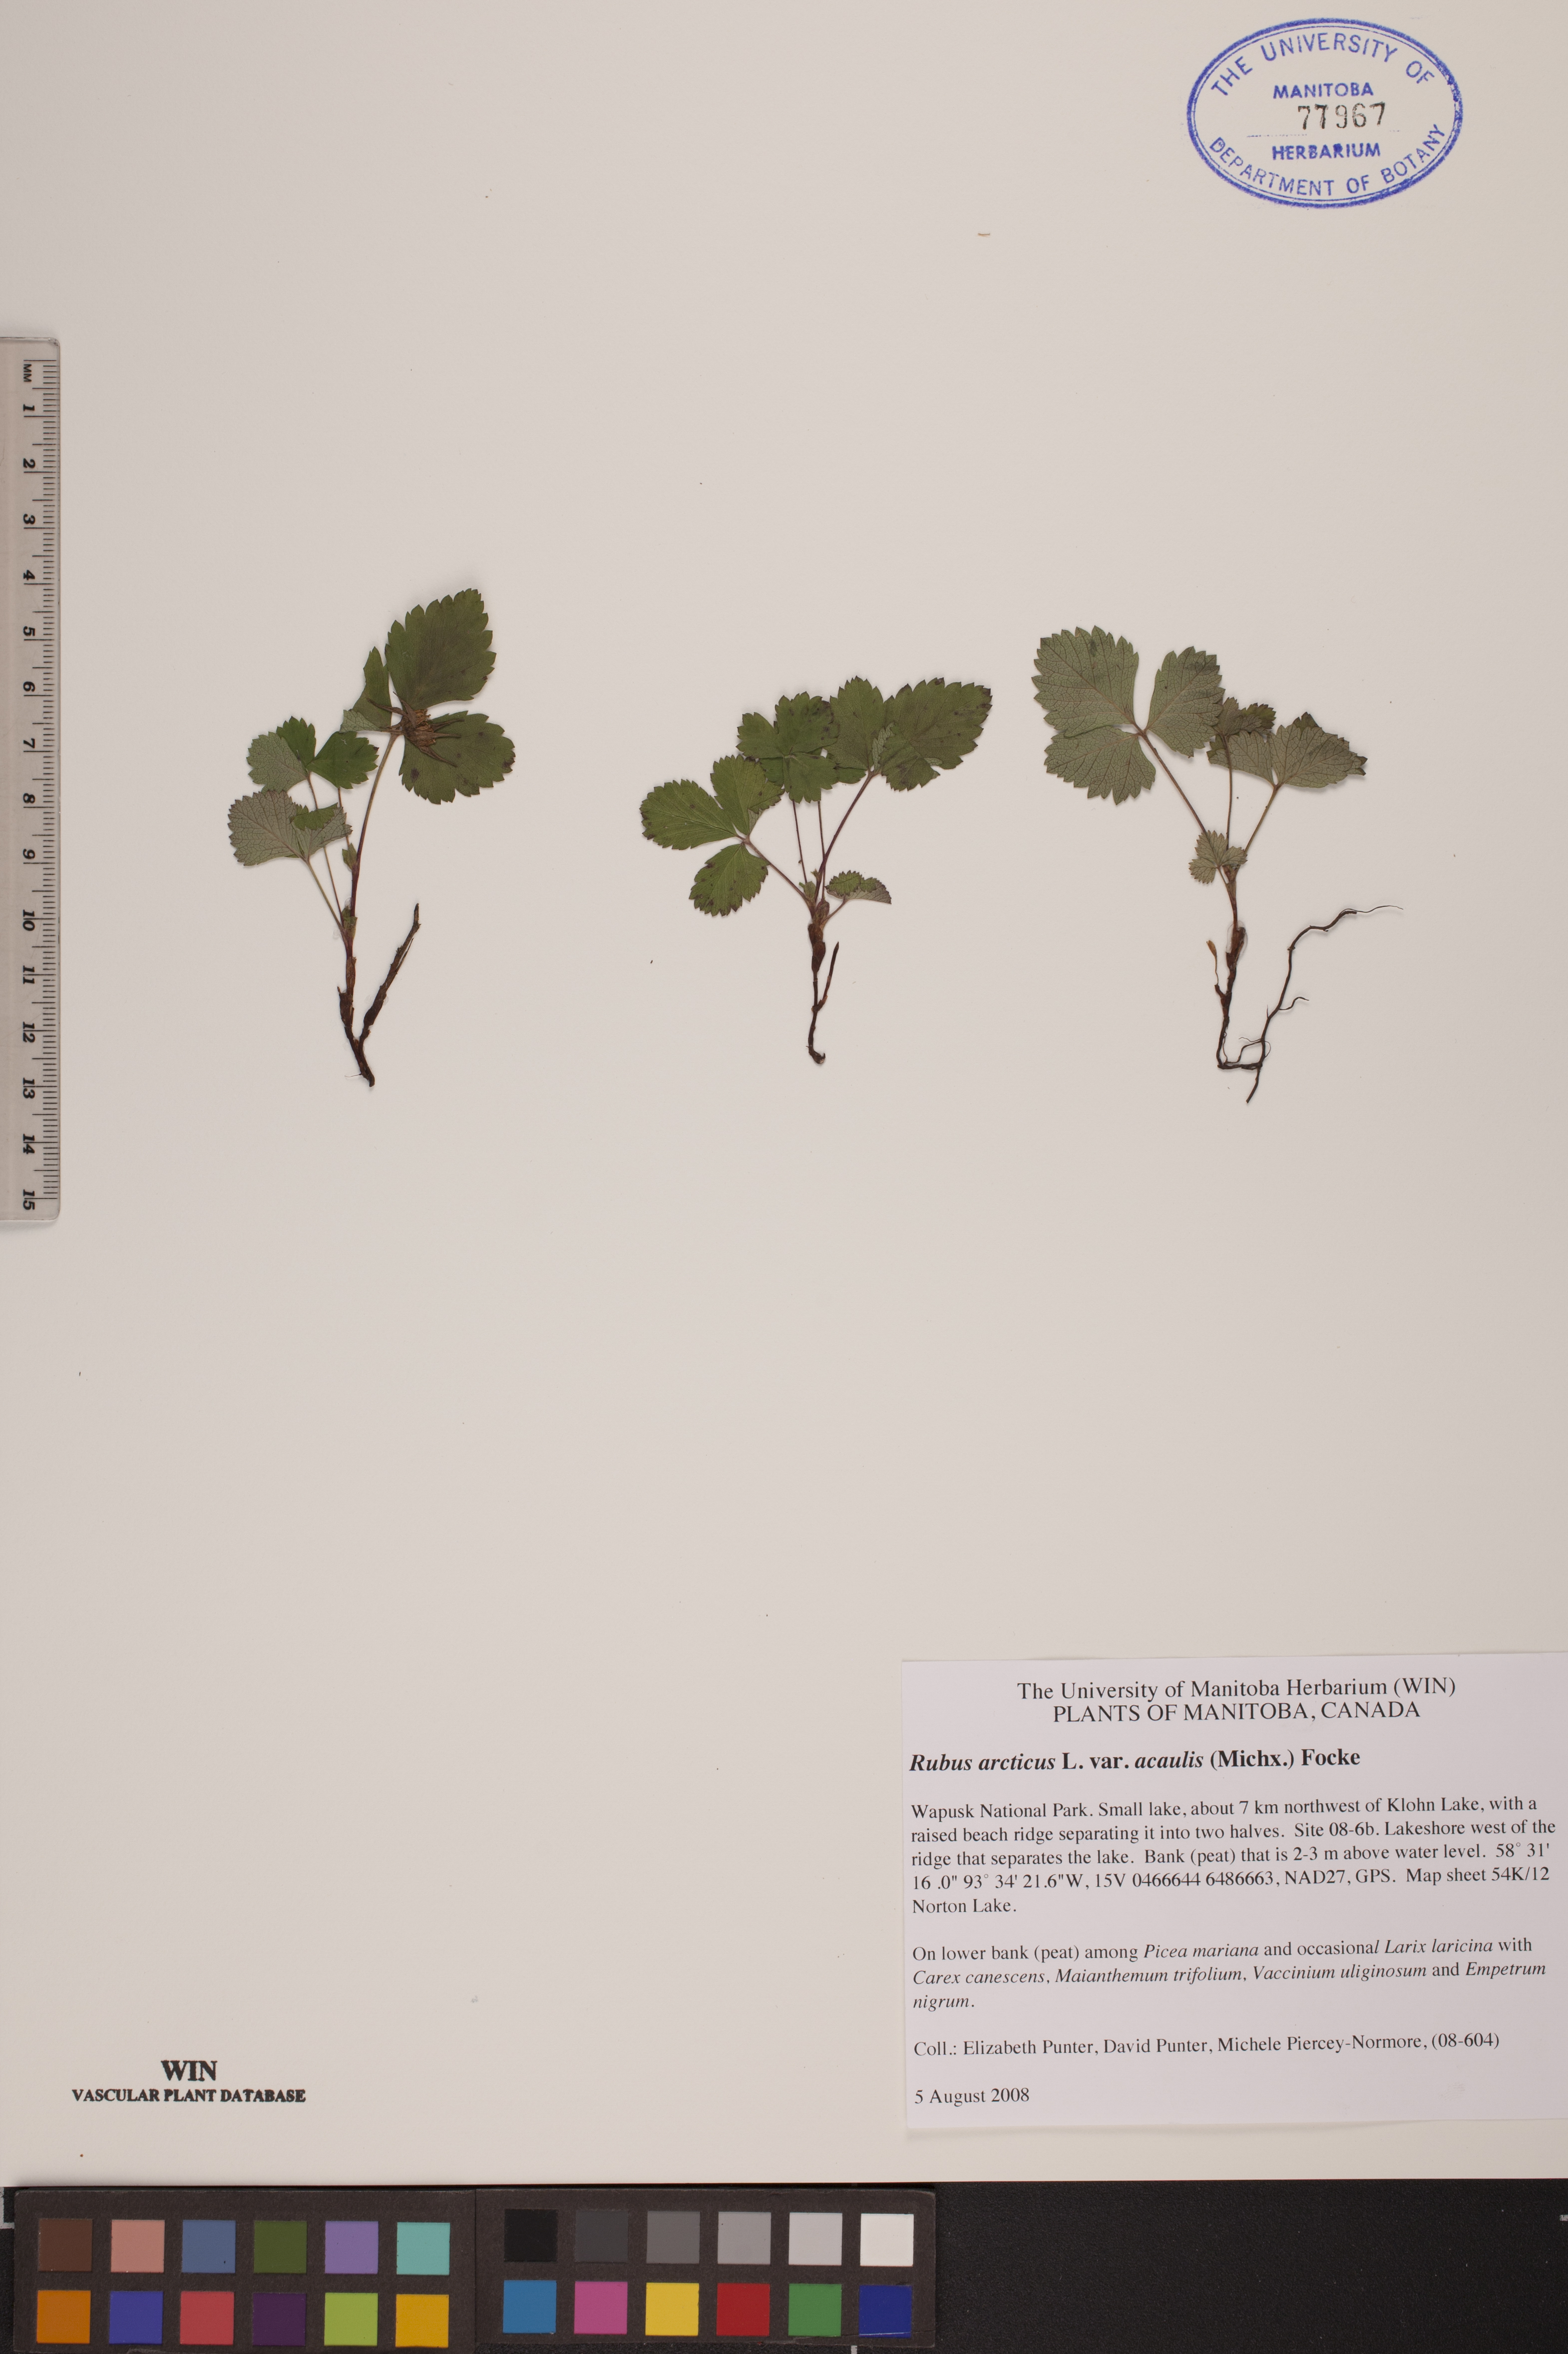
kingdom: Plantae
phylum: Tracheophyta
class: Magnoliopsida
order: Rosales
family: Rosaceae
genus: Rubus
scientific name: Rubus arcticus
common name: Arctic bramble
